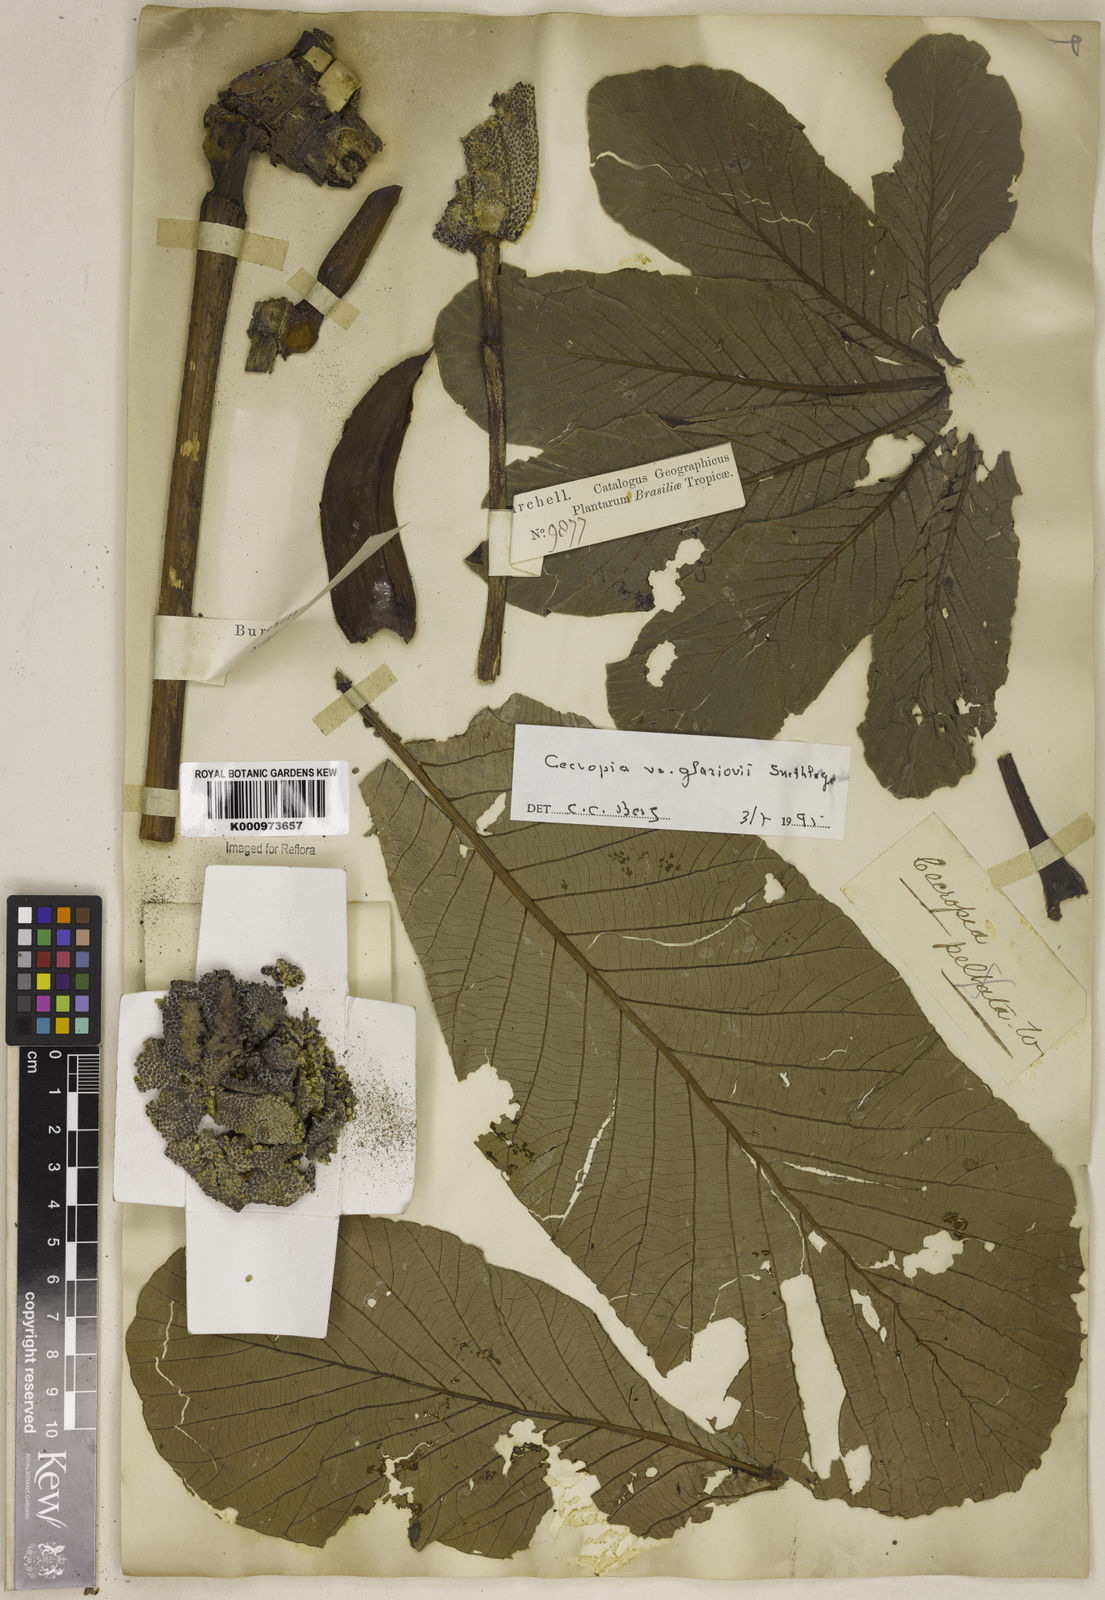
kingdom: Plantae
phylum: Tracheophyta
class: Magnoliopsida
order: Rosales
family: Urticaceae
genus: Cecropia
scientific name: Cecropia glaziovii
